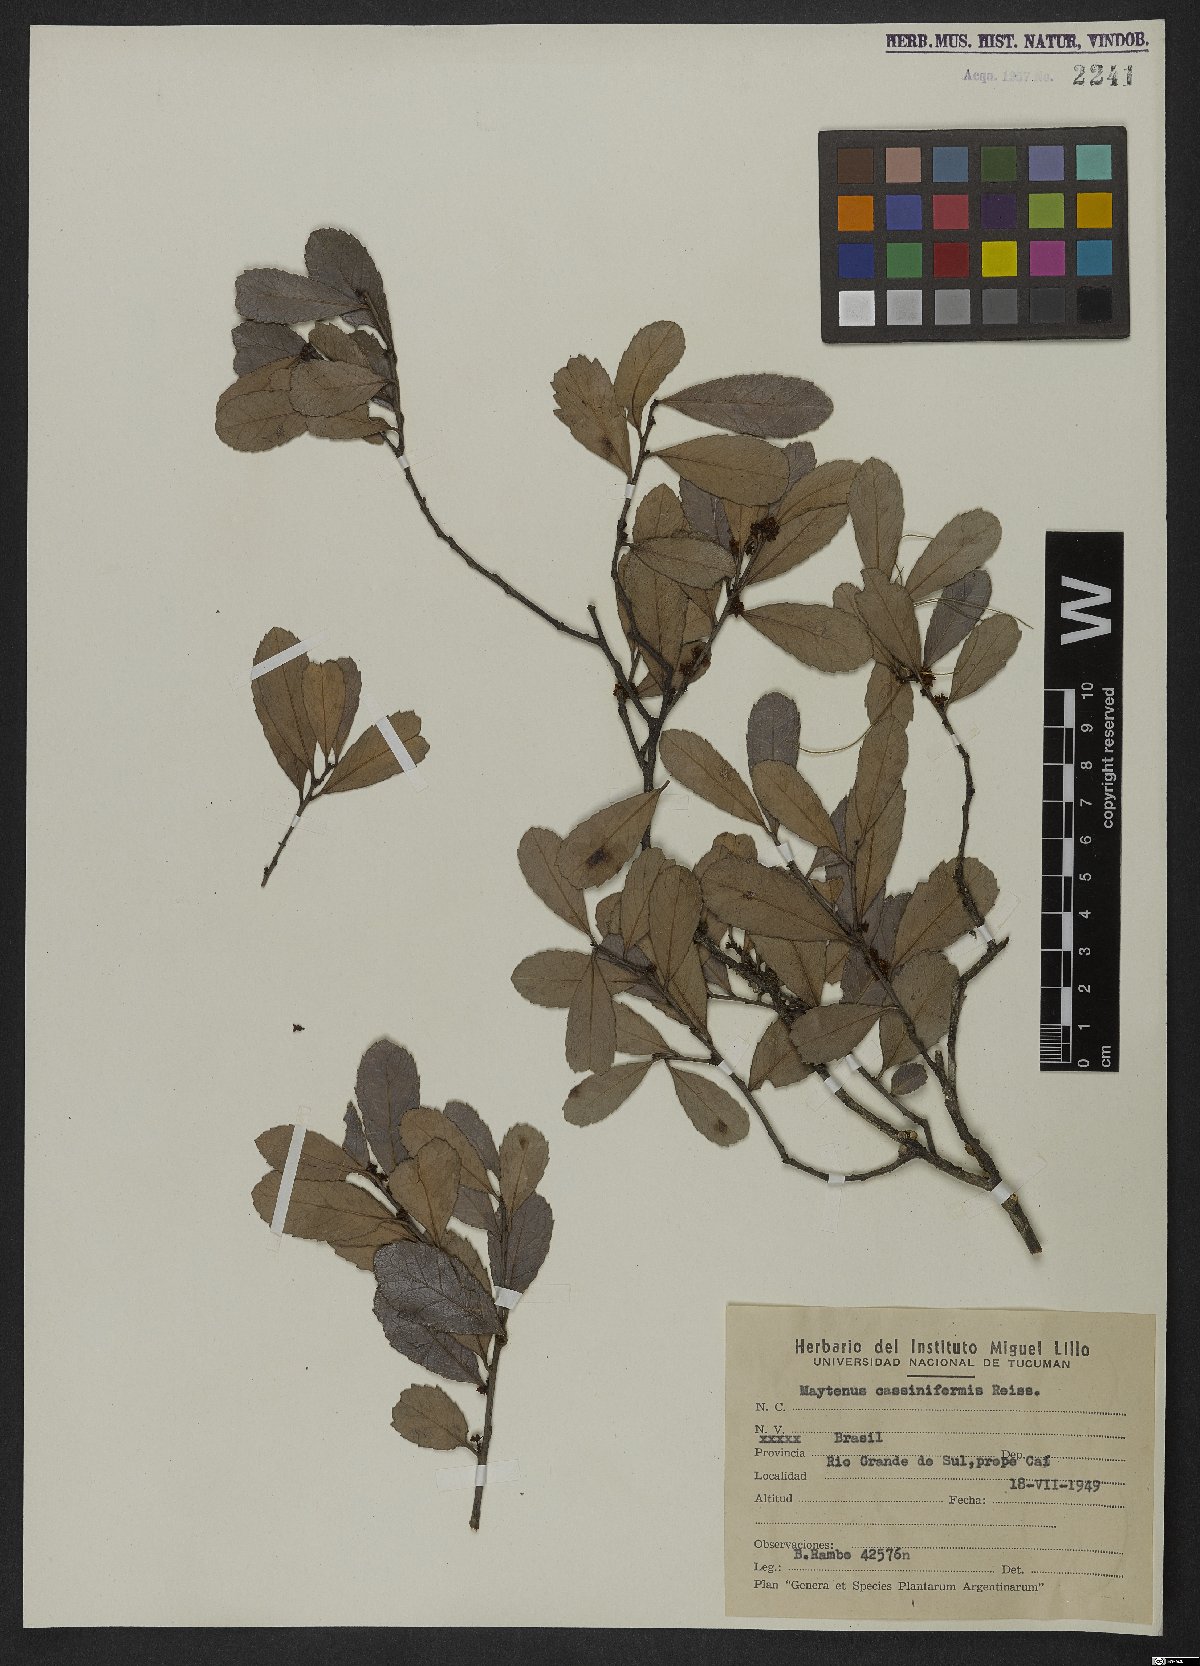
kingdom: Plantae
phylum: Tracheophyta
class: Magnoliopsida
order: Celastrales
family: Celastraceae
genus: Monteverdia
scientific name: Monteverdia cassineformis
